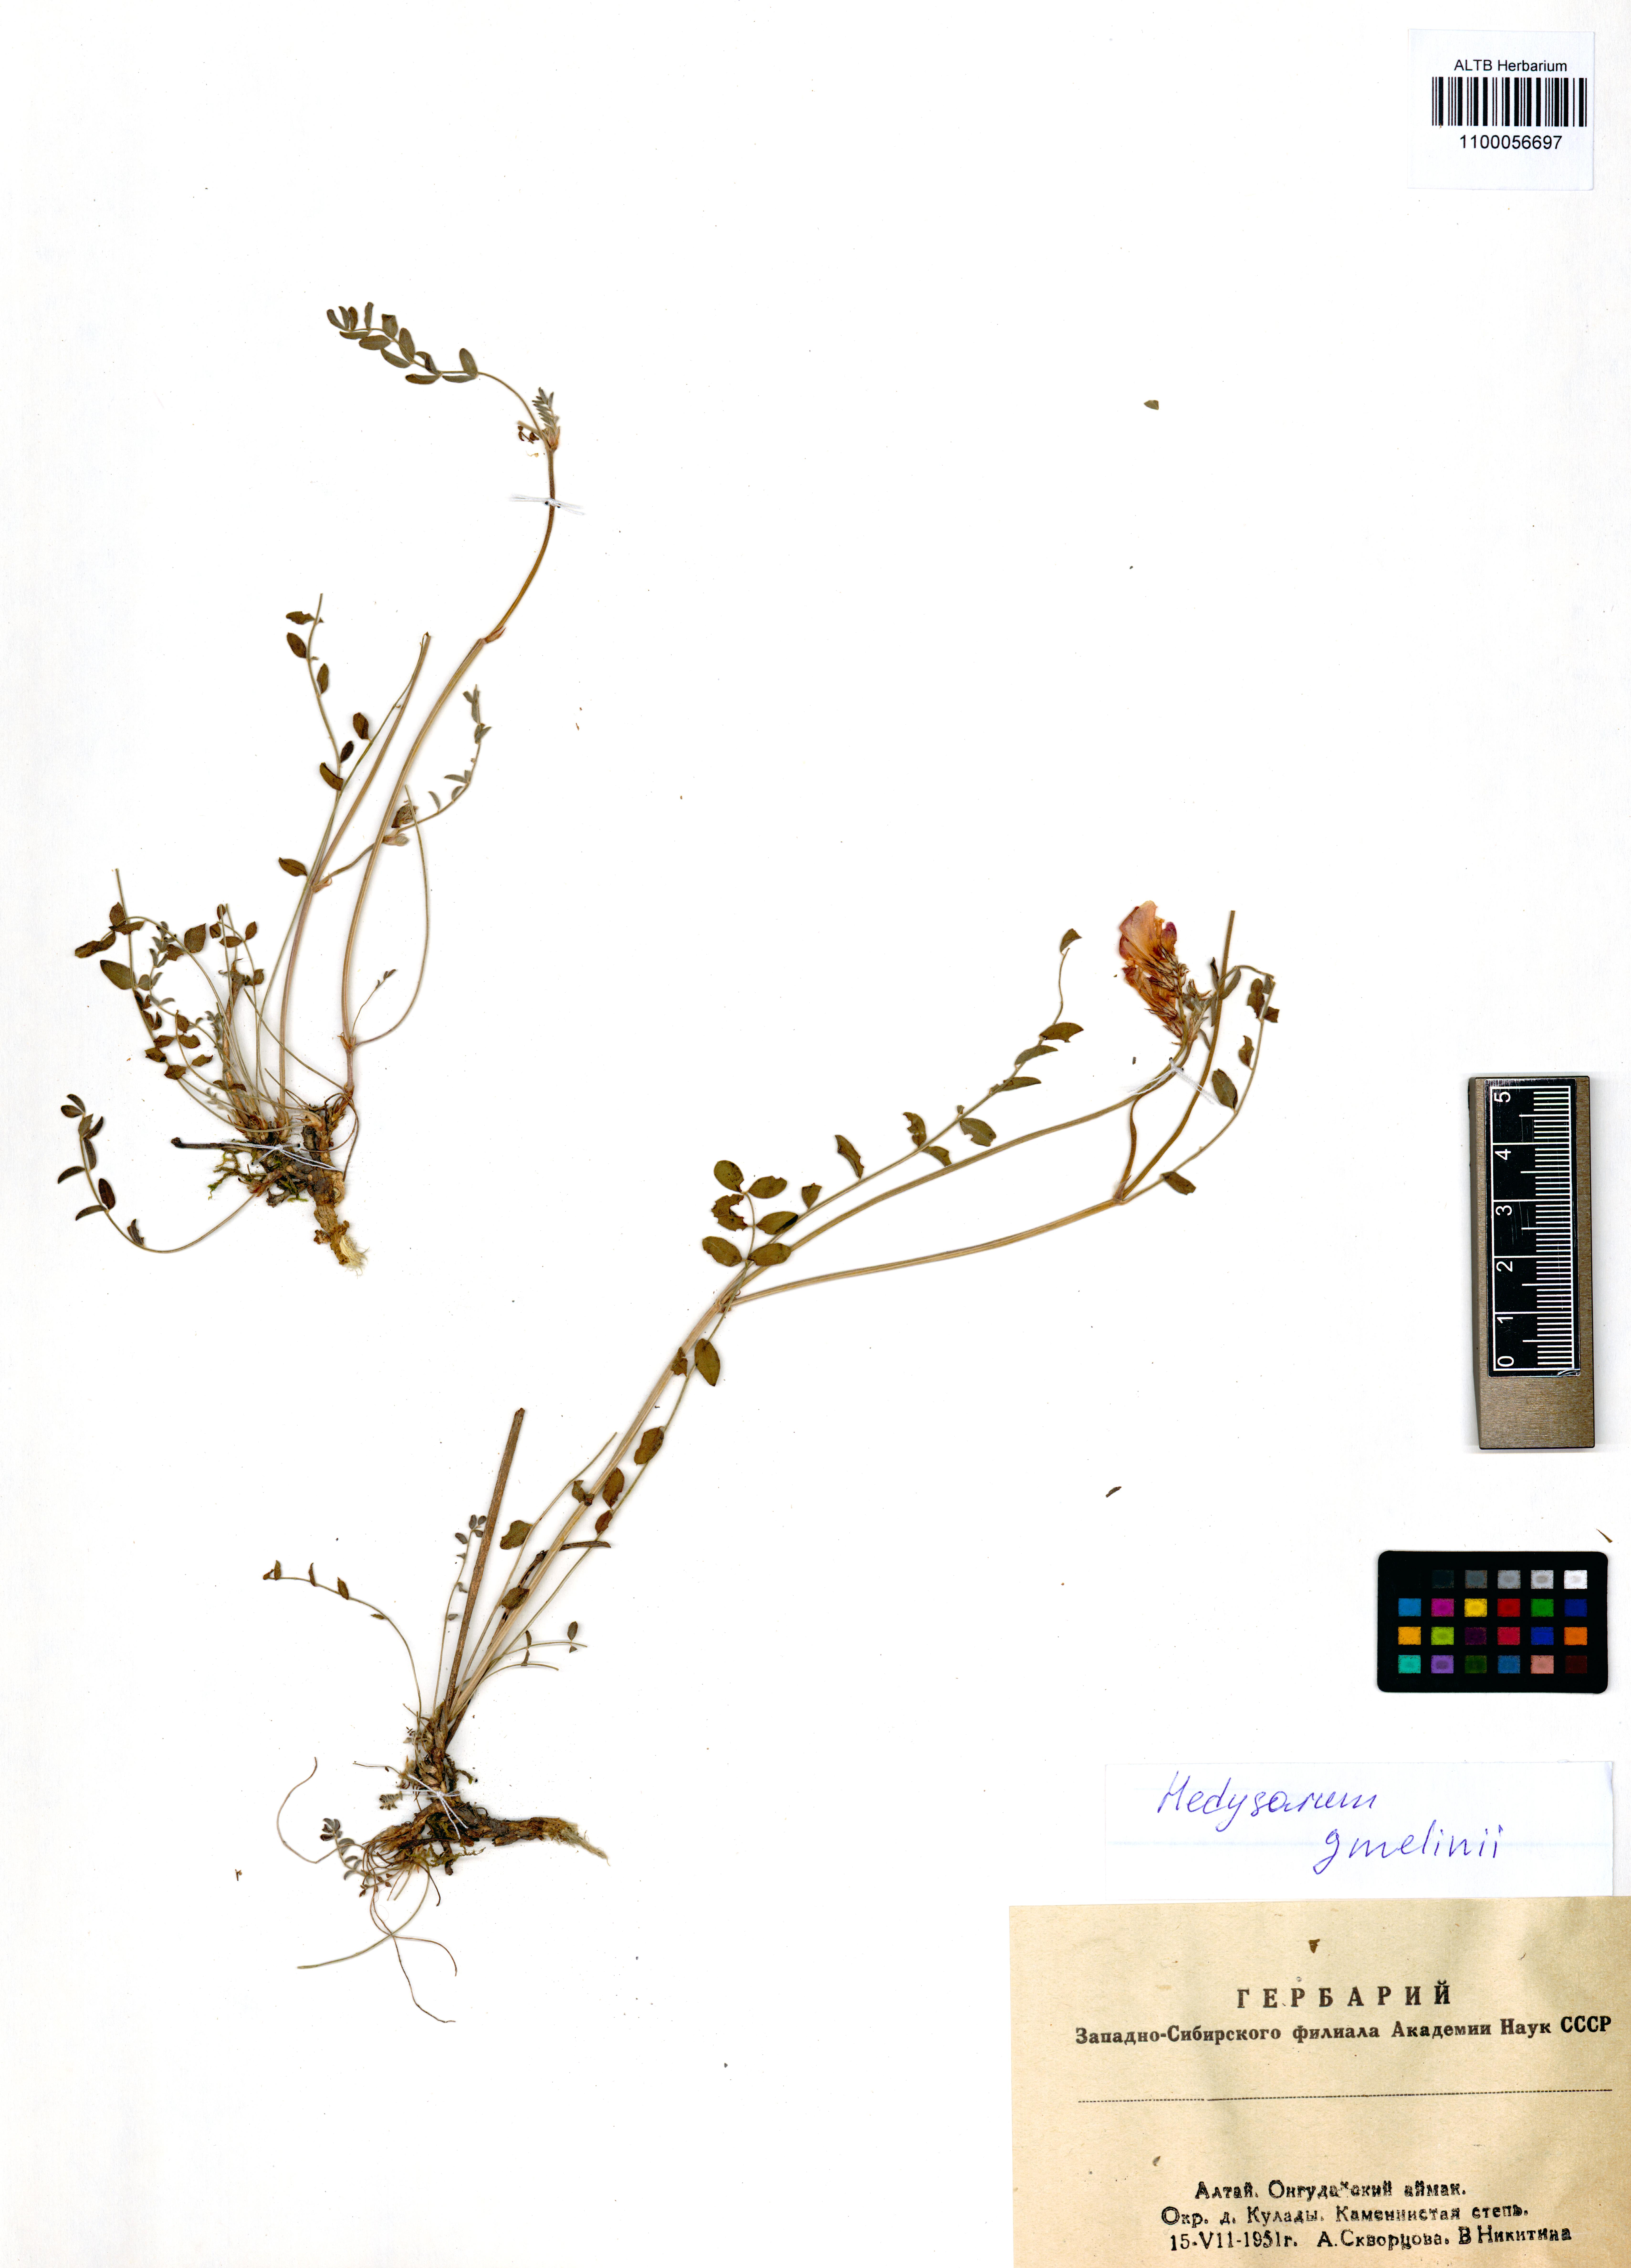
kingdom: Plantae
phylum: Tracheophyta
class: Magnoliopsida
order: Fabales
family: Fabaceae
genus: Hedysarum
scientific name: Hedysarum gmelinii
